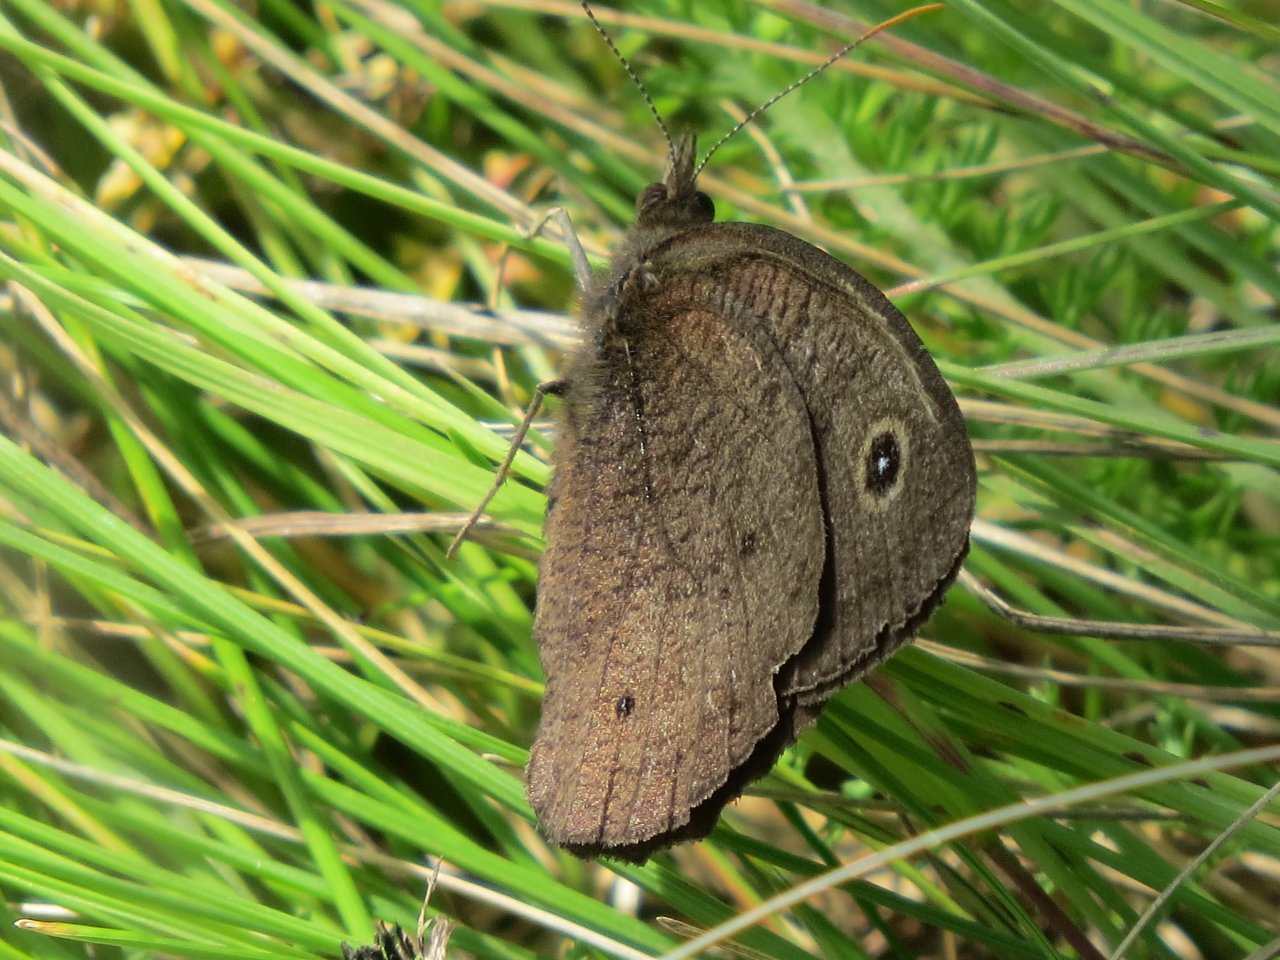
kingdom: Animalia
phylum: Arthropoda
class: Insecta
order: Lepidoptera
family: Nymphalidae
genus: Cercyonis
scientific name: Cercyonis pegala
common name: Common Wood-Nymph
